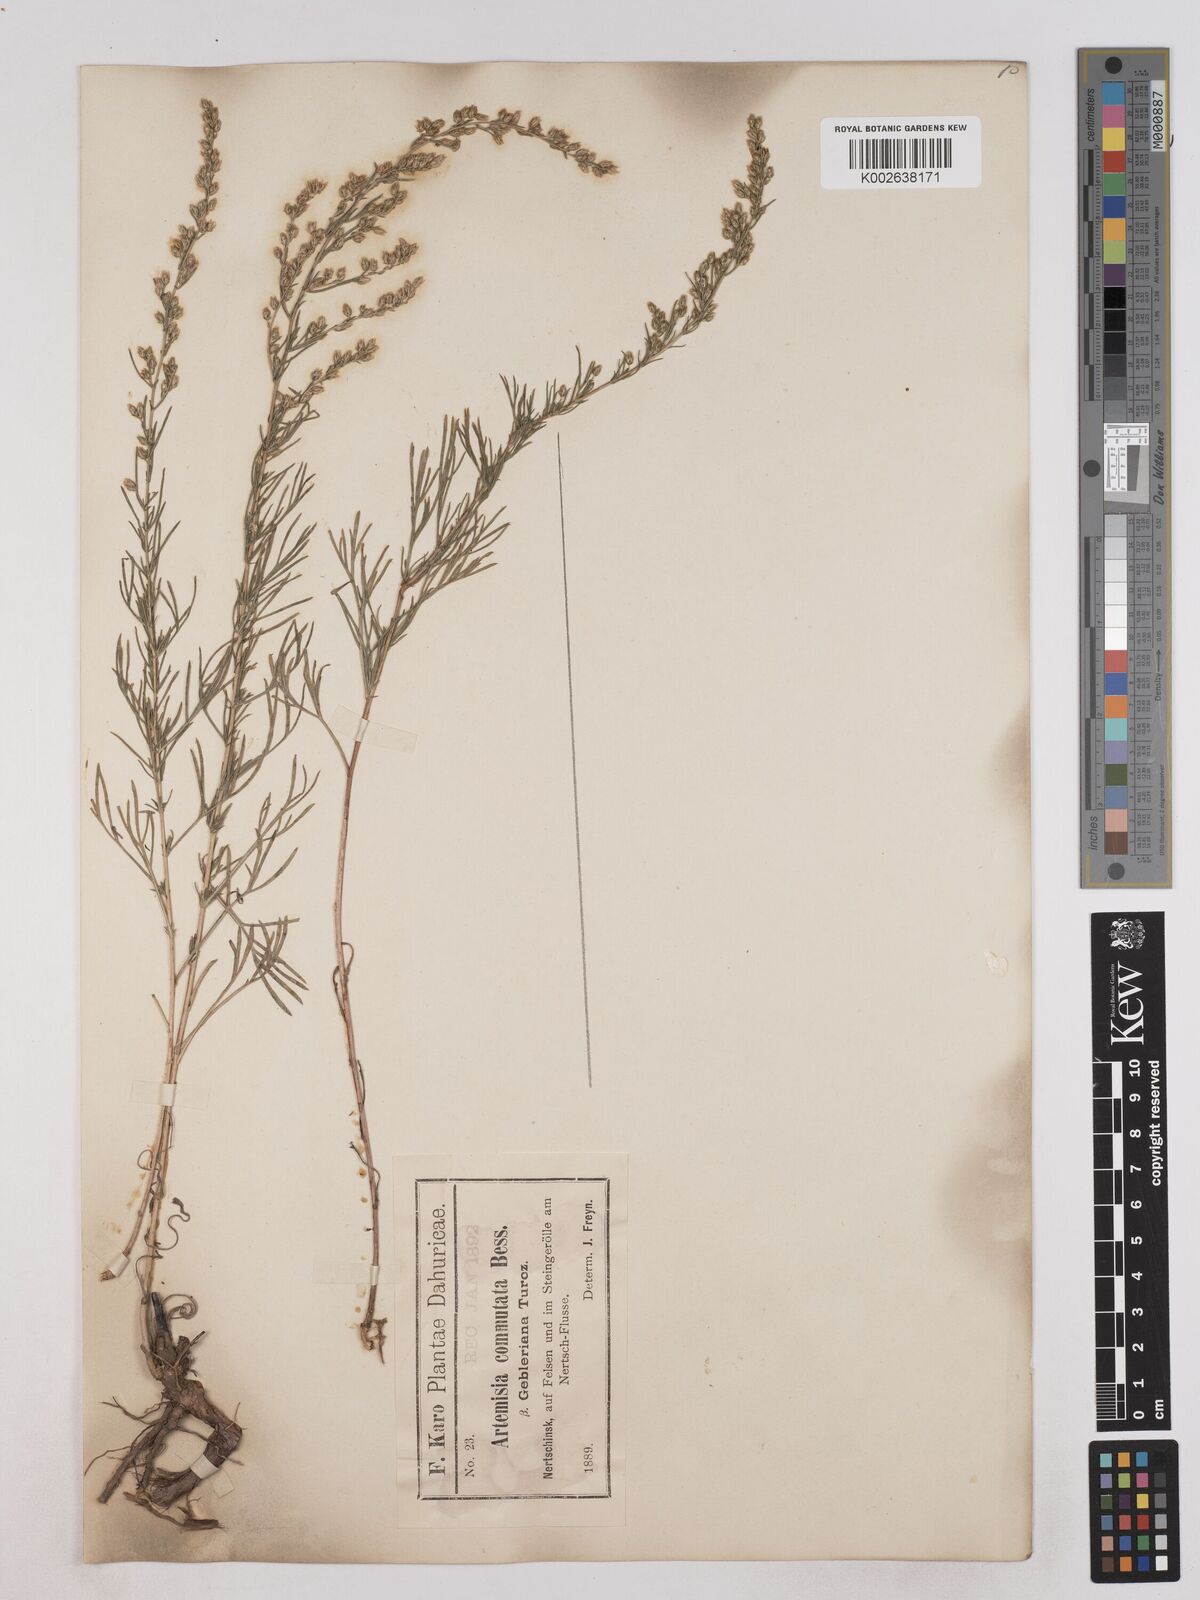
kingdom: Plantae
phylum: Tracheophyta
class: Magnoliopsida
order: Asterales
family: Asteraceae
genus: Artemisia
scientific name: Artemisia pubescens
